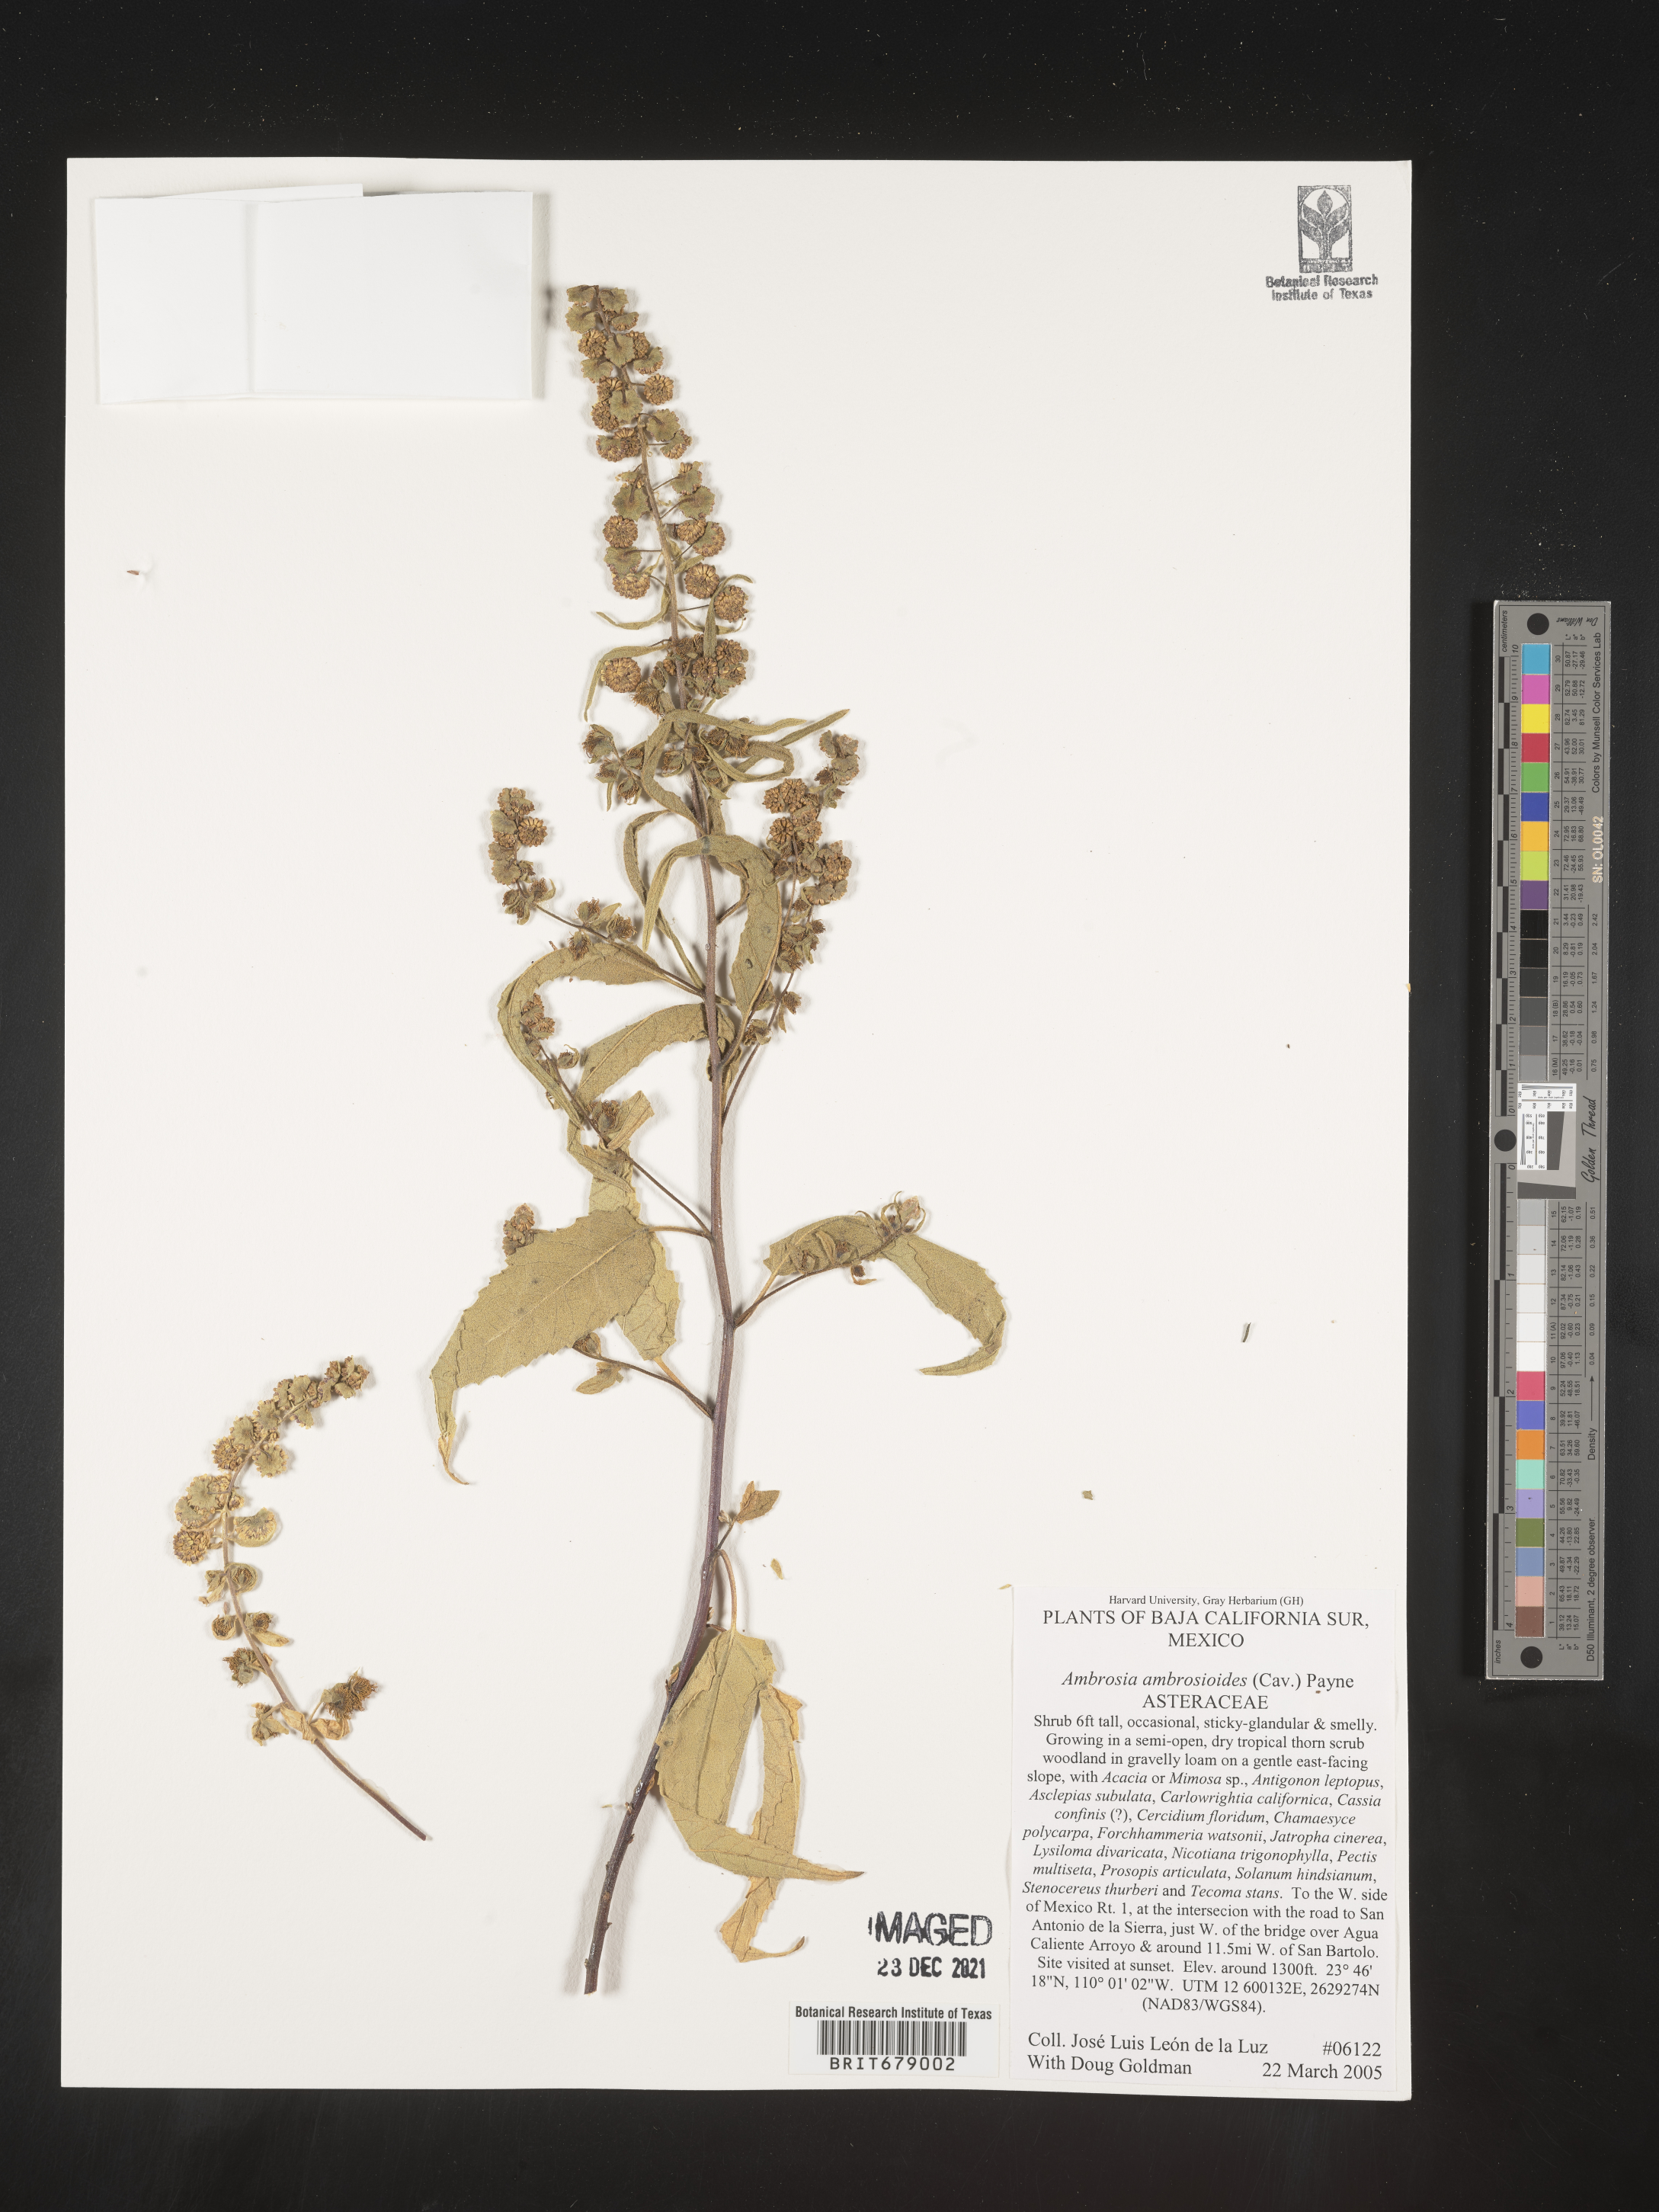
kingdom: Plantae
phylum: Tracheophyta
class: Magnoliopsida
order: Asterales
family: Asteraceae
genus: Ambrosia
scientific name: Ambrosia
